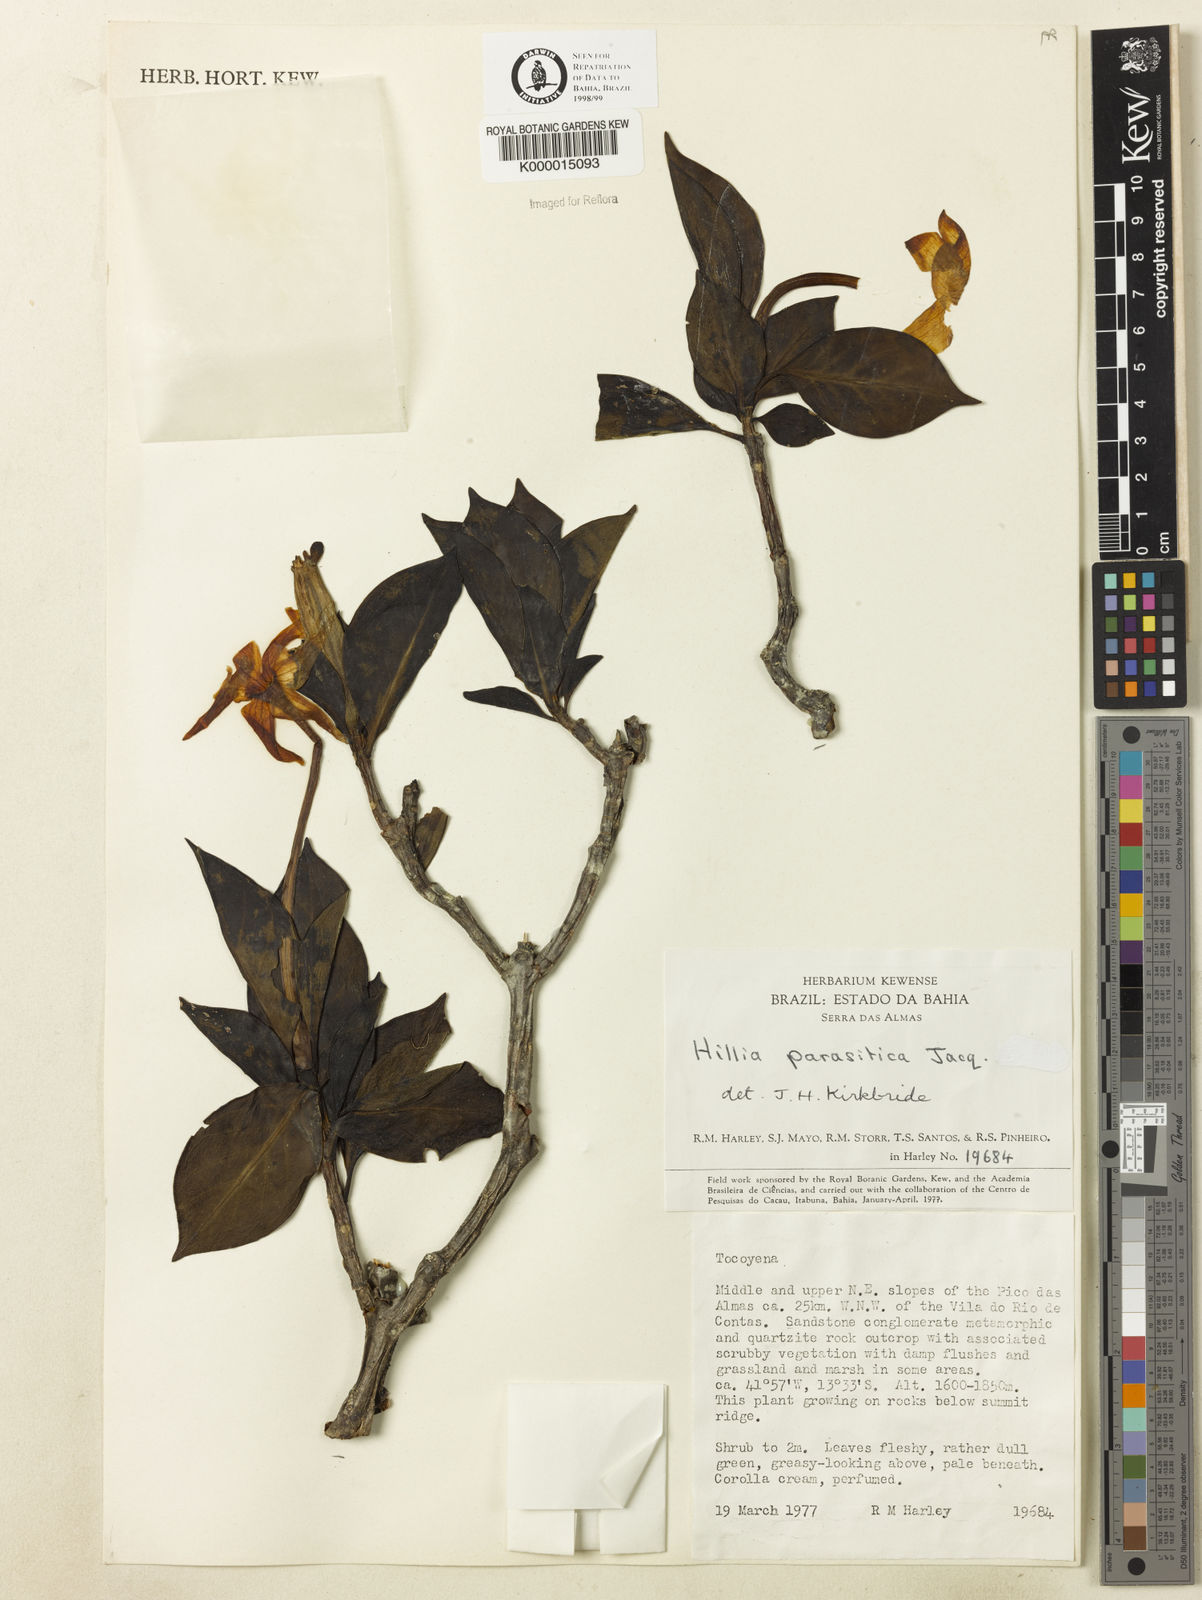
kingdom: Plantae
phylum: Tracheophyta
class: Magnoliopsida
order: Gentianales
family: Rubiaceae
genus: Hillia
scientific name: Hillia parasitica
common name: Morning star
